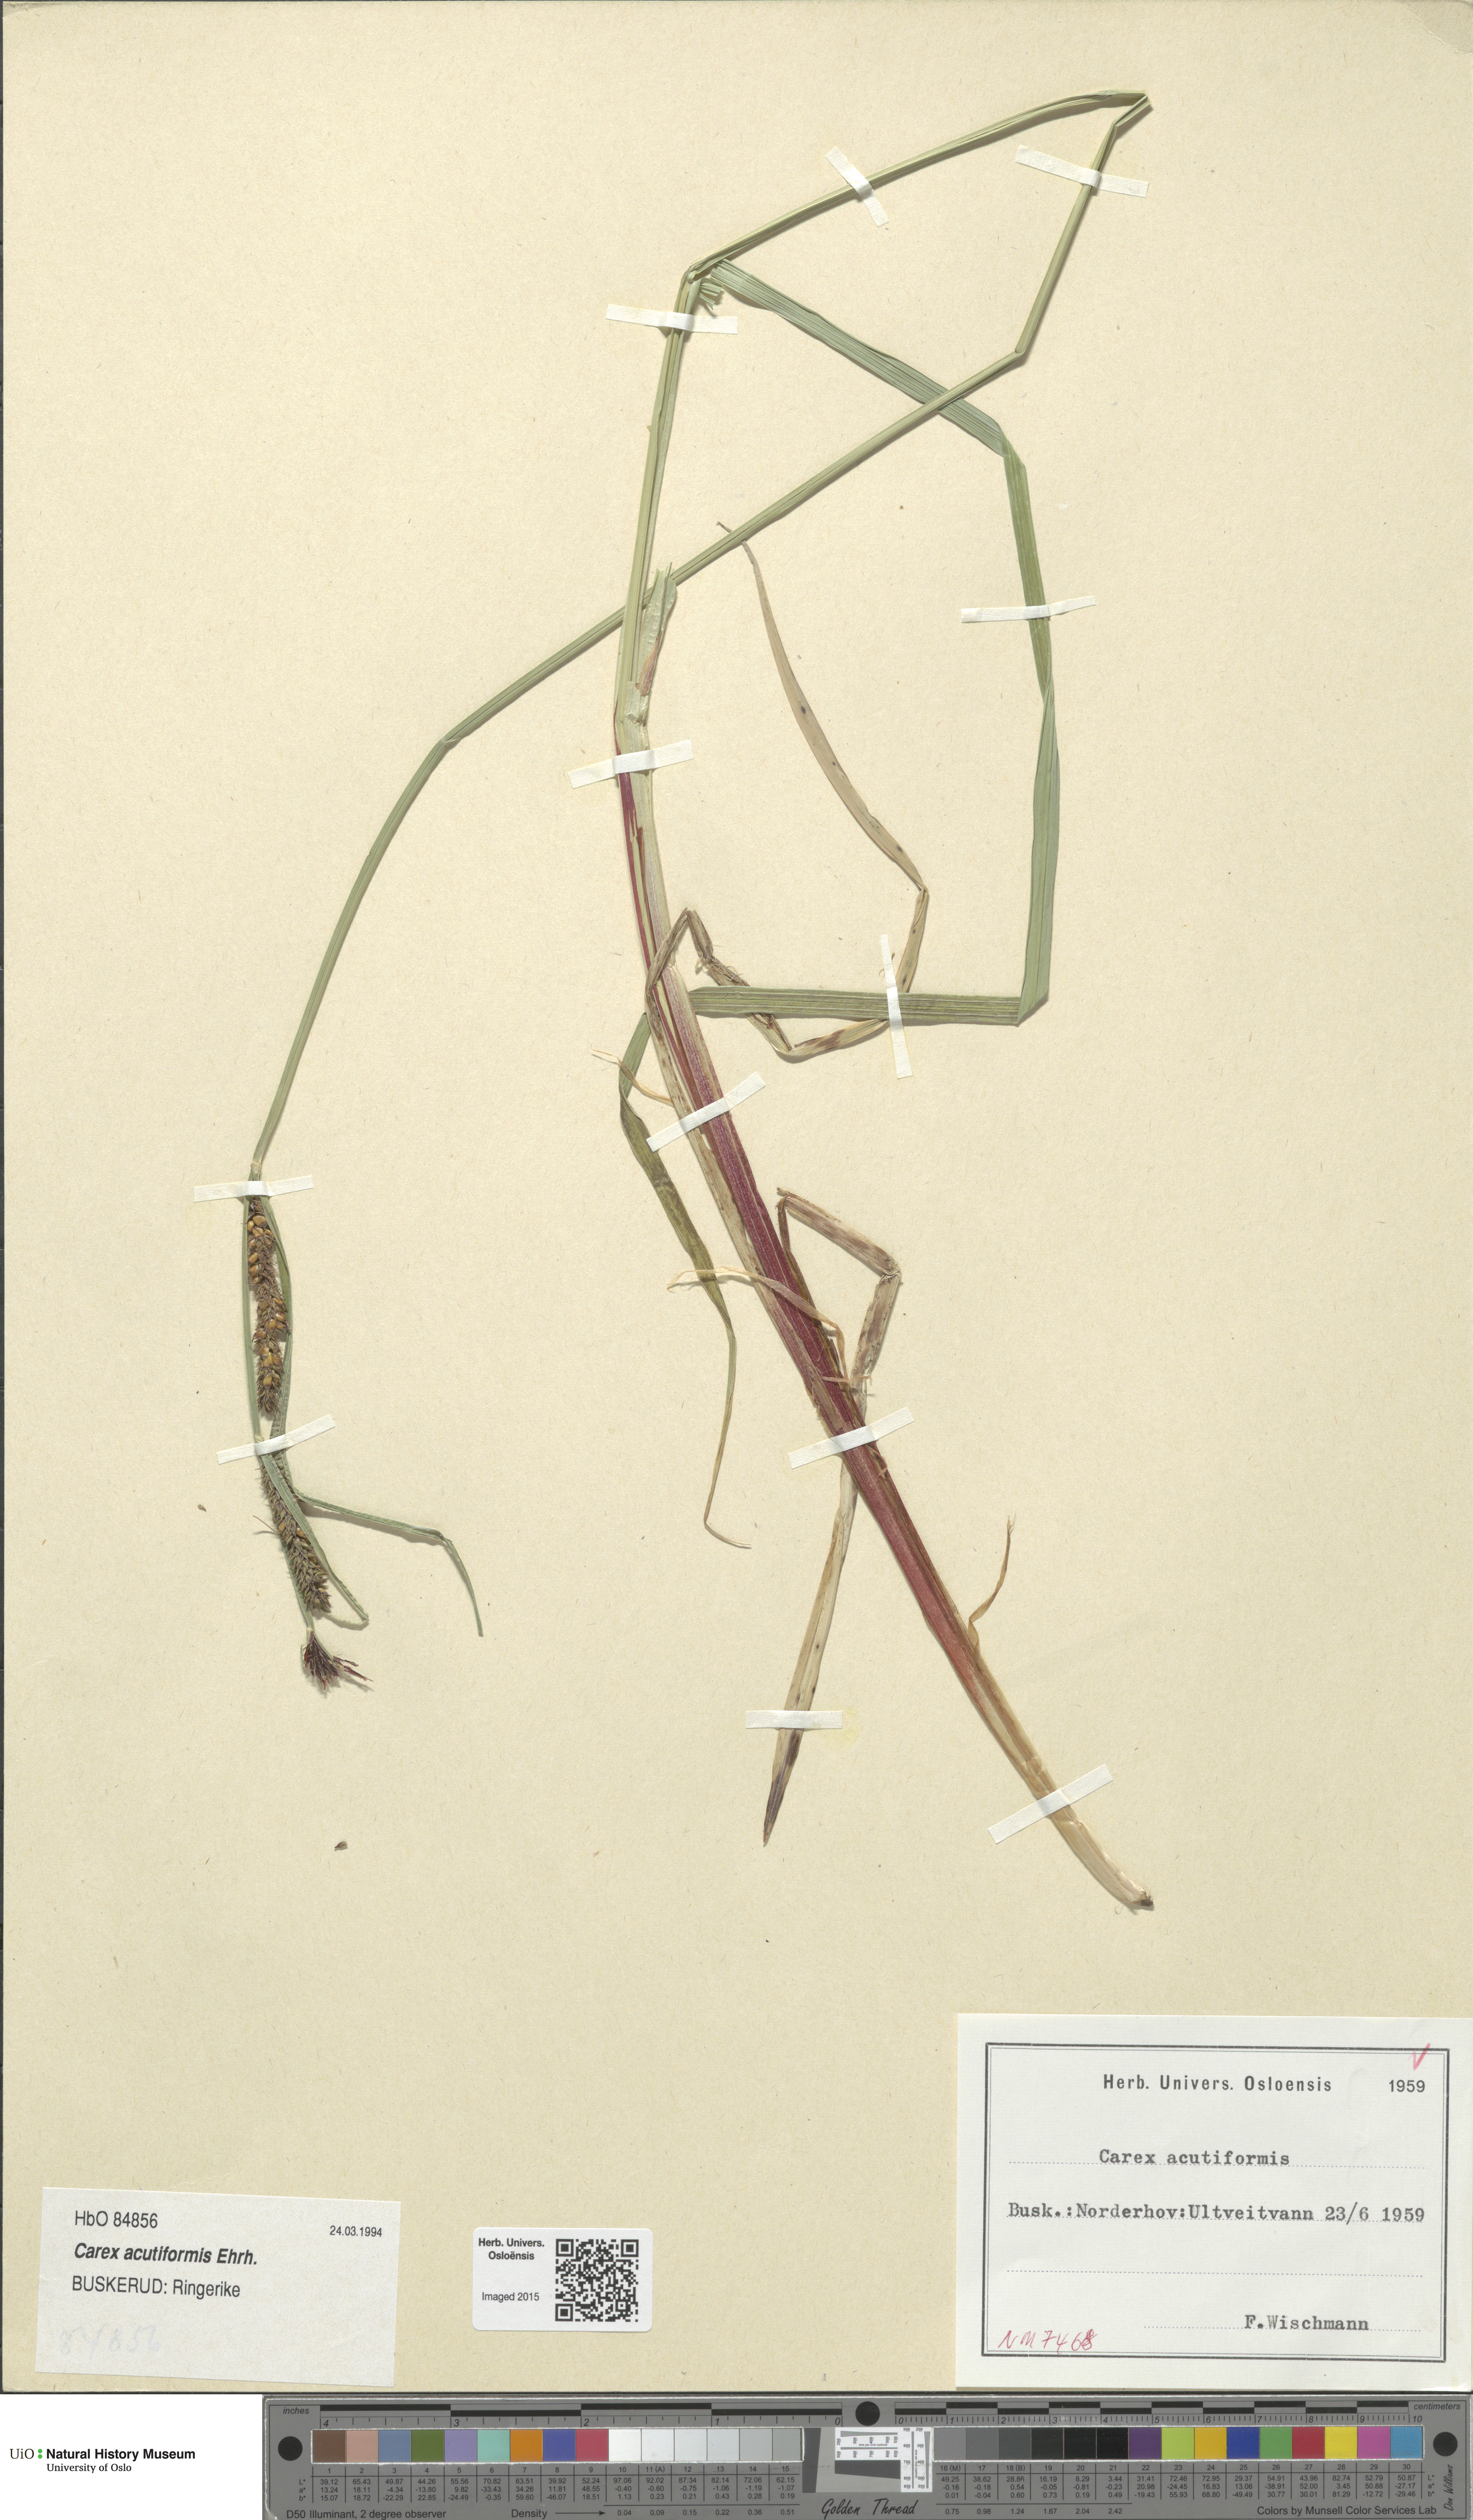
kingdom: Plantae
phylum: Tracheophyta
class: Liliopsida
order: Poales
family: Cyperaceae
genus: Carex
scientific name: Carex acutiformis
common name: Lesser pond-sedge
